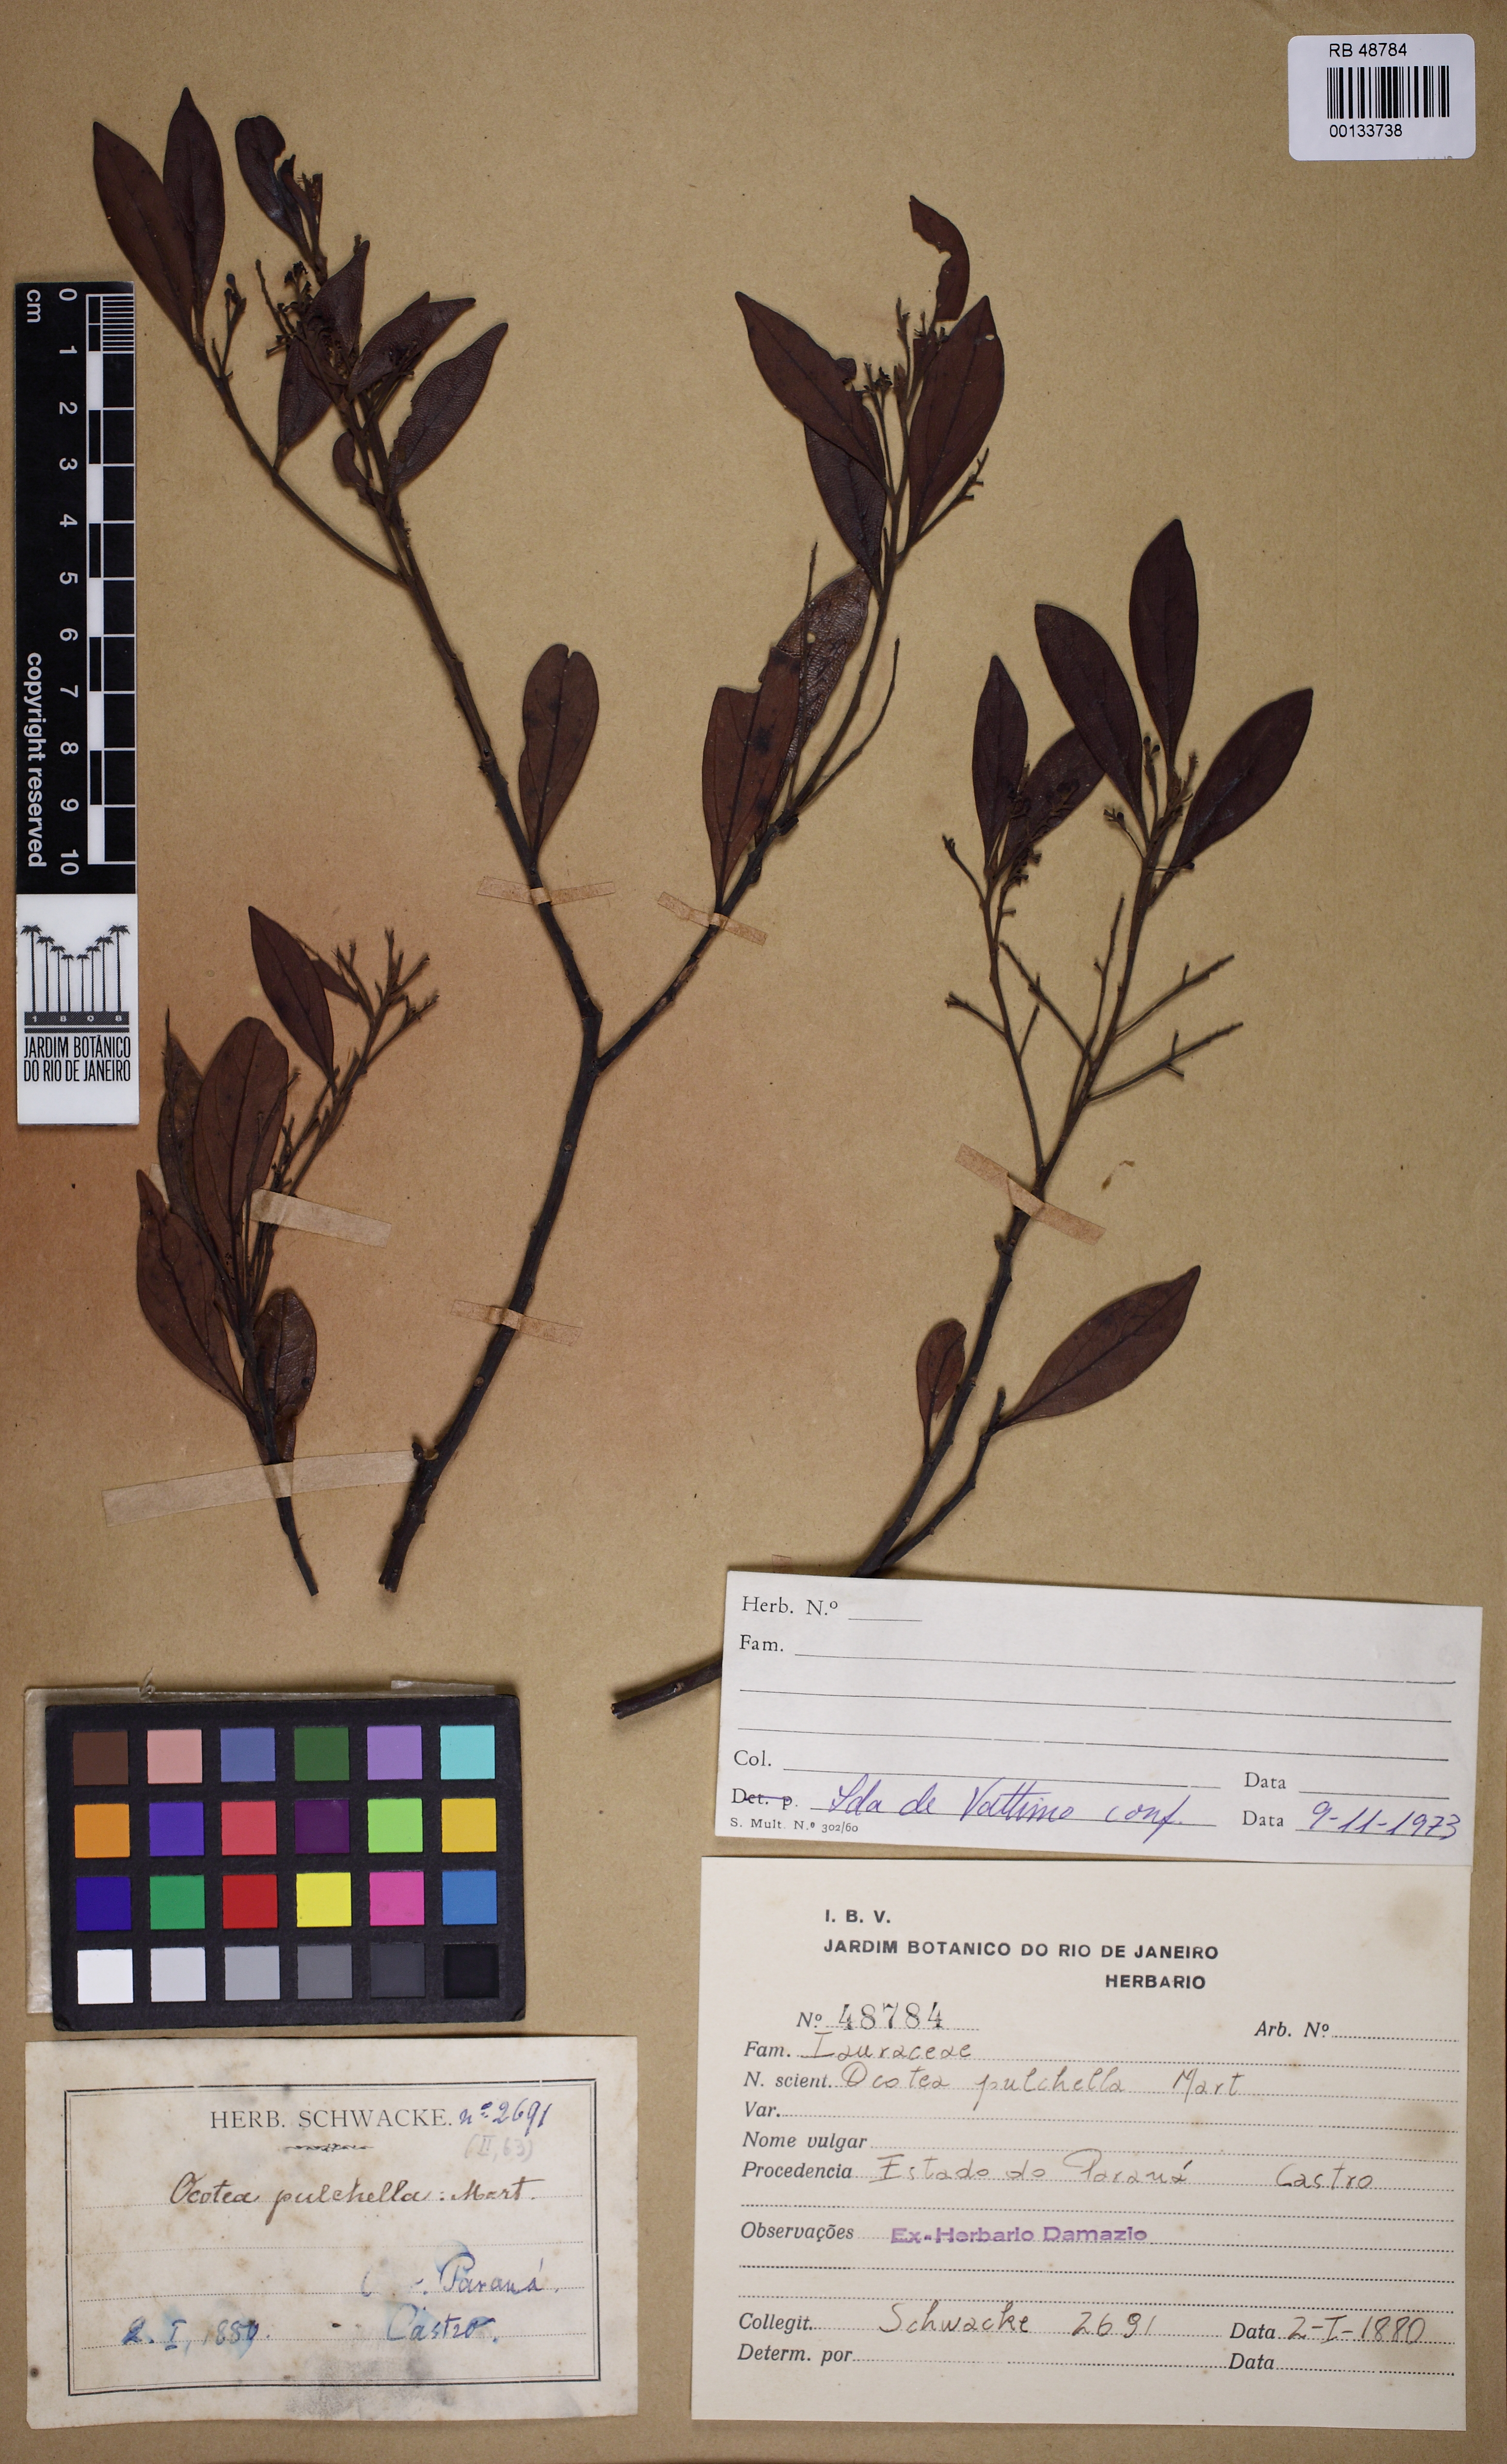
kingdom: Plantae
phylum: Tracheophyta
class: Magnoliopsida
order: Laurales
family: Lauraceae
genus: Mespilodaphne
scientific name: Mespilodaphne pulchella
